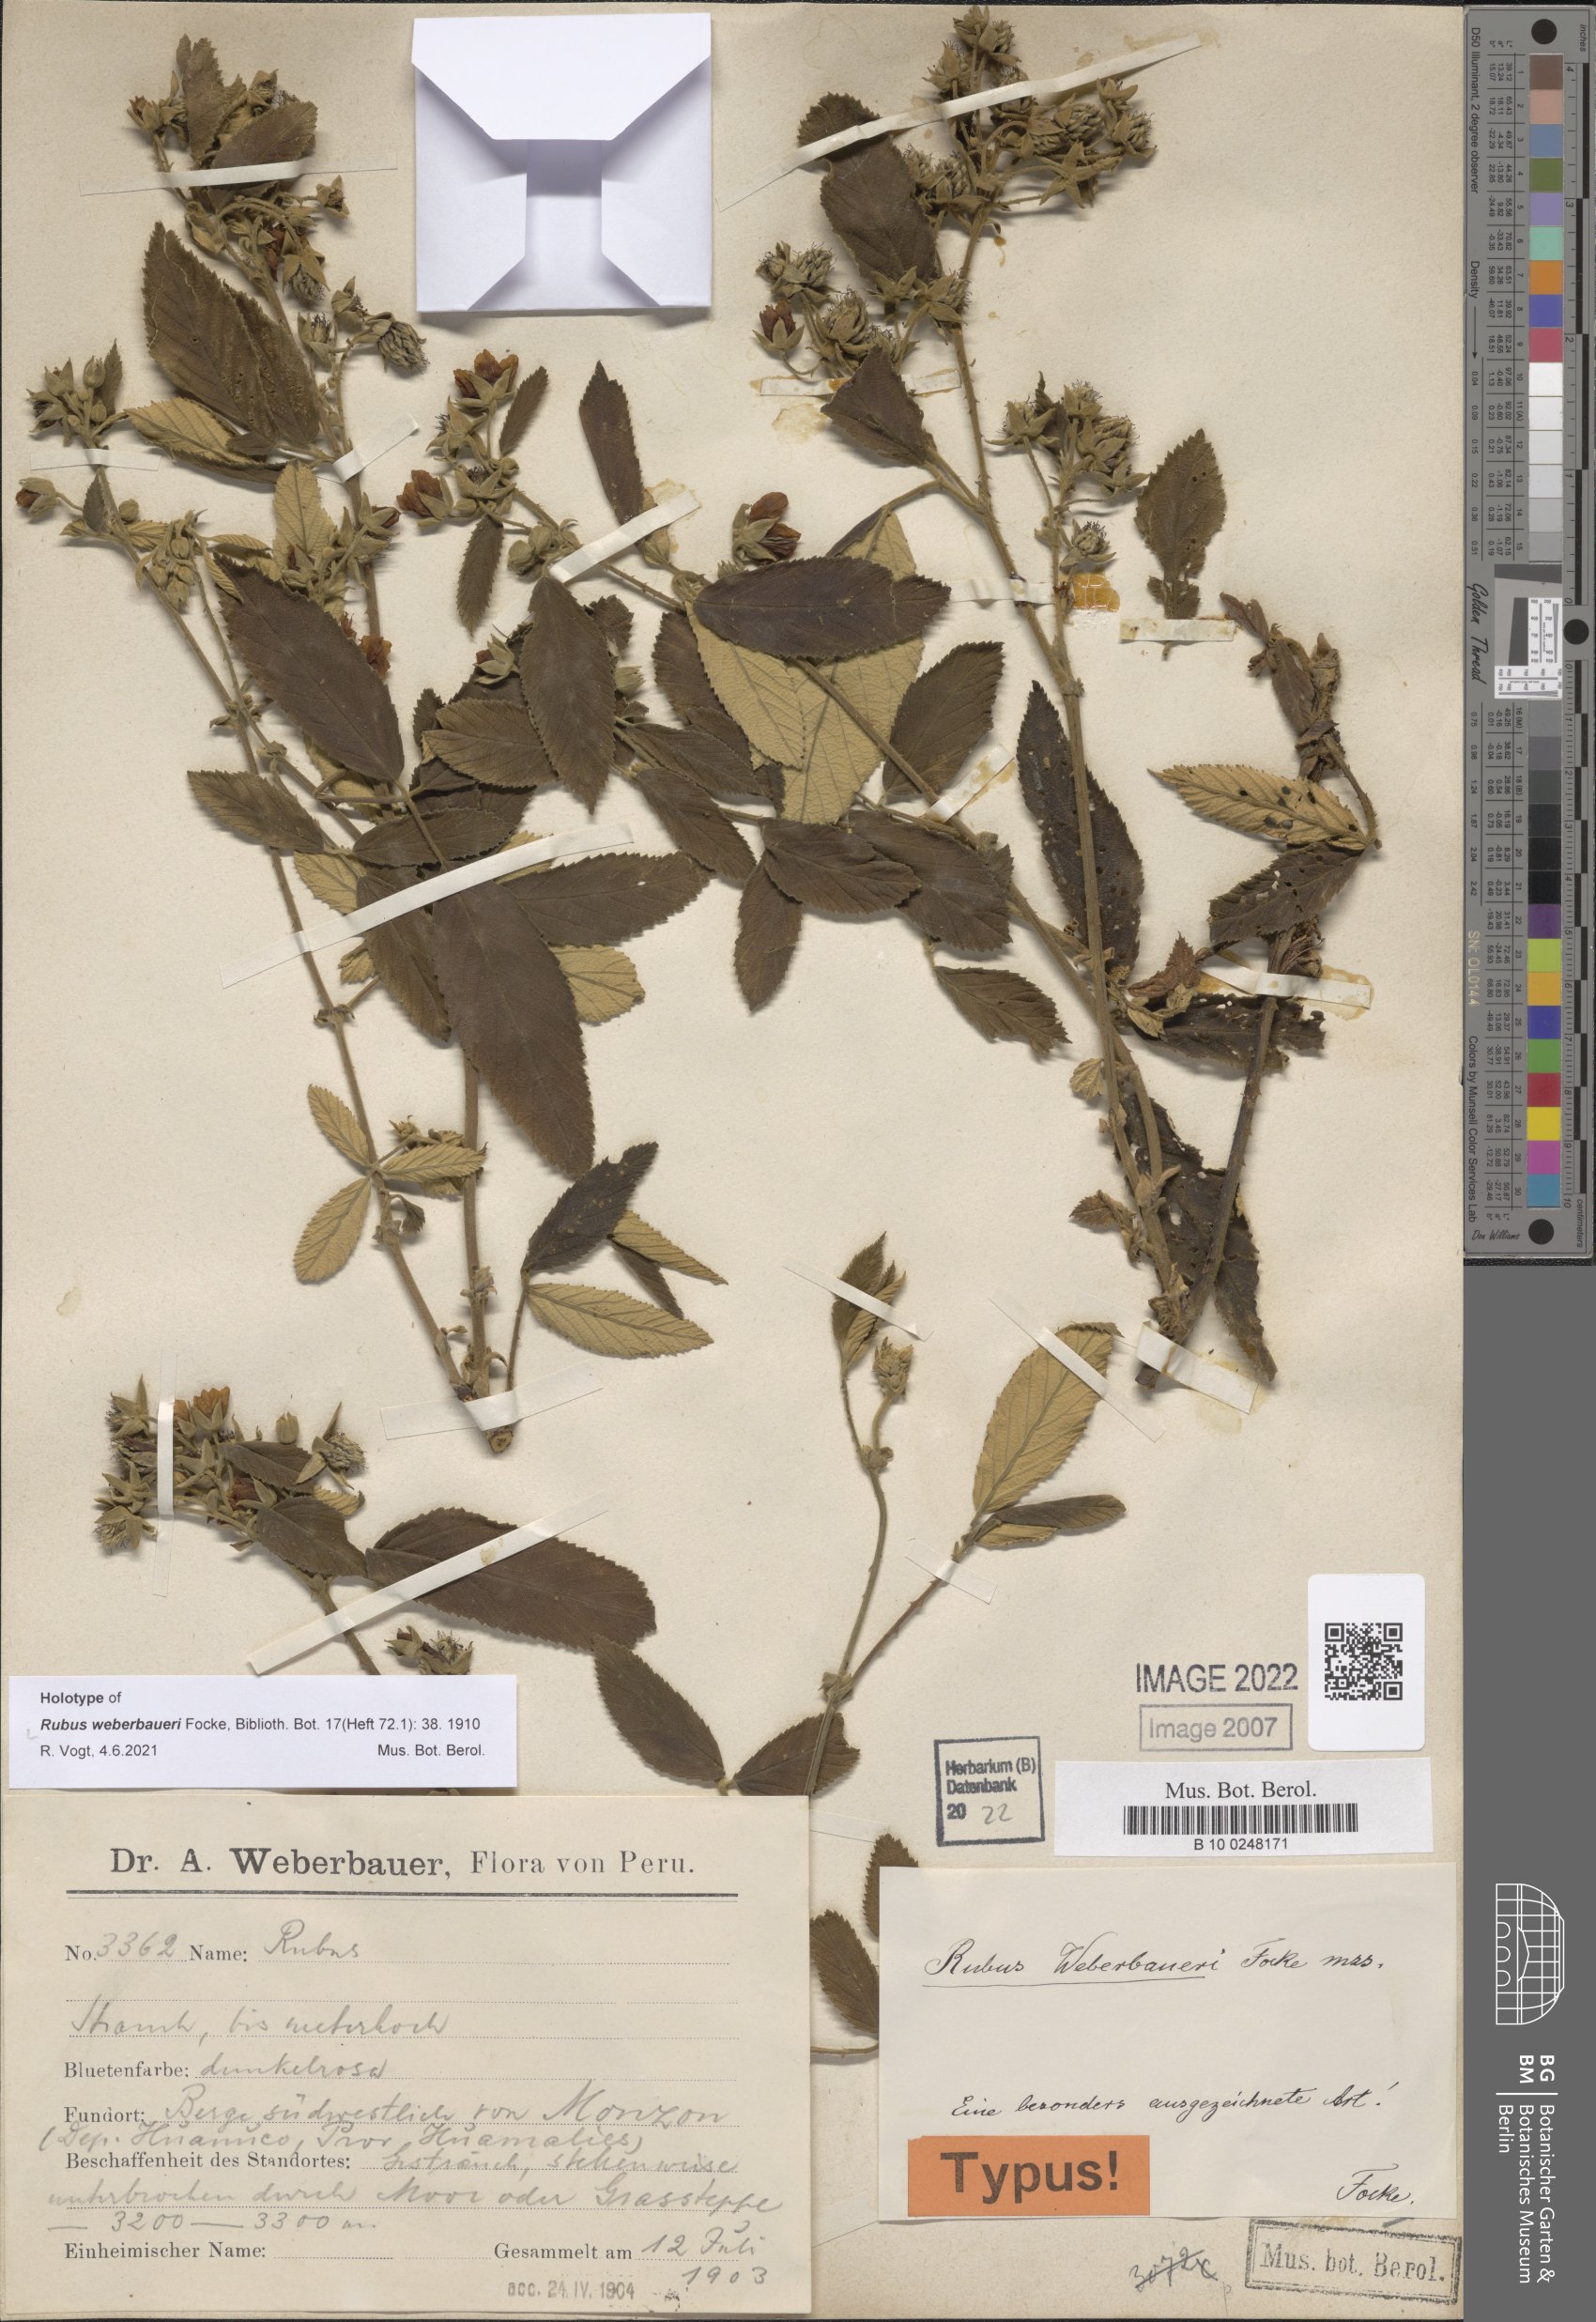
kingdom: Plantae
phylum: Tracheophyta
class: Magnoliopsida
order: Rosales
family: Rosaceae
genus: Rubus
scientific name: Rubus weberbaueri
